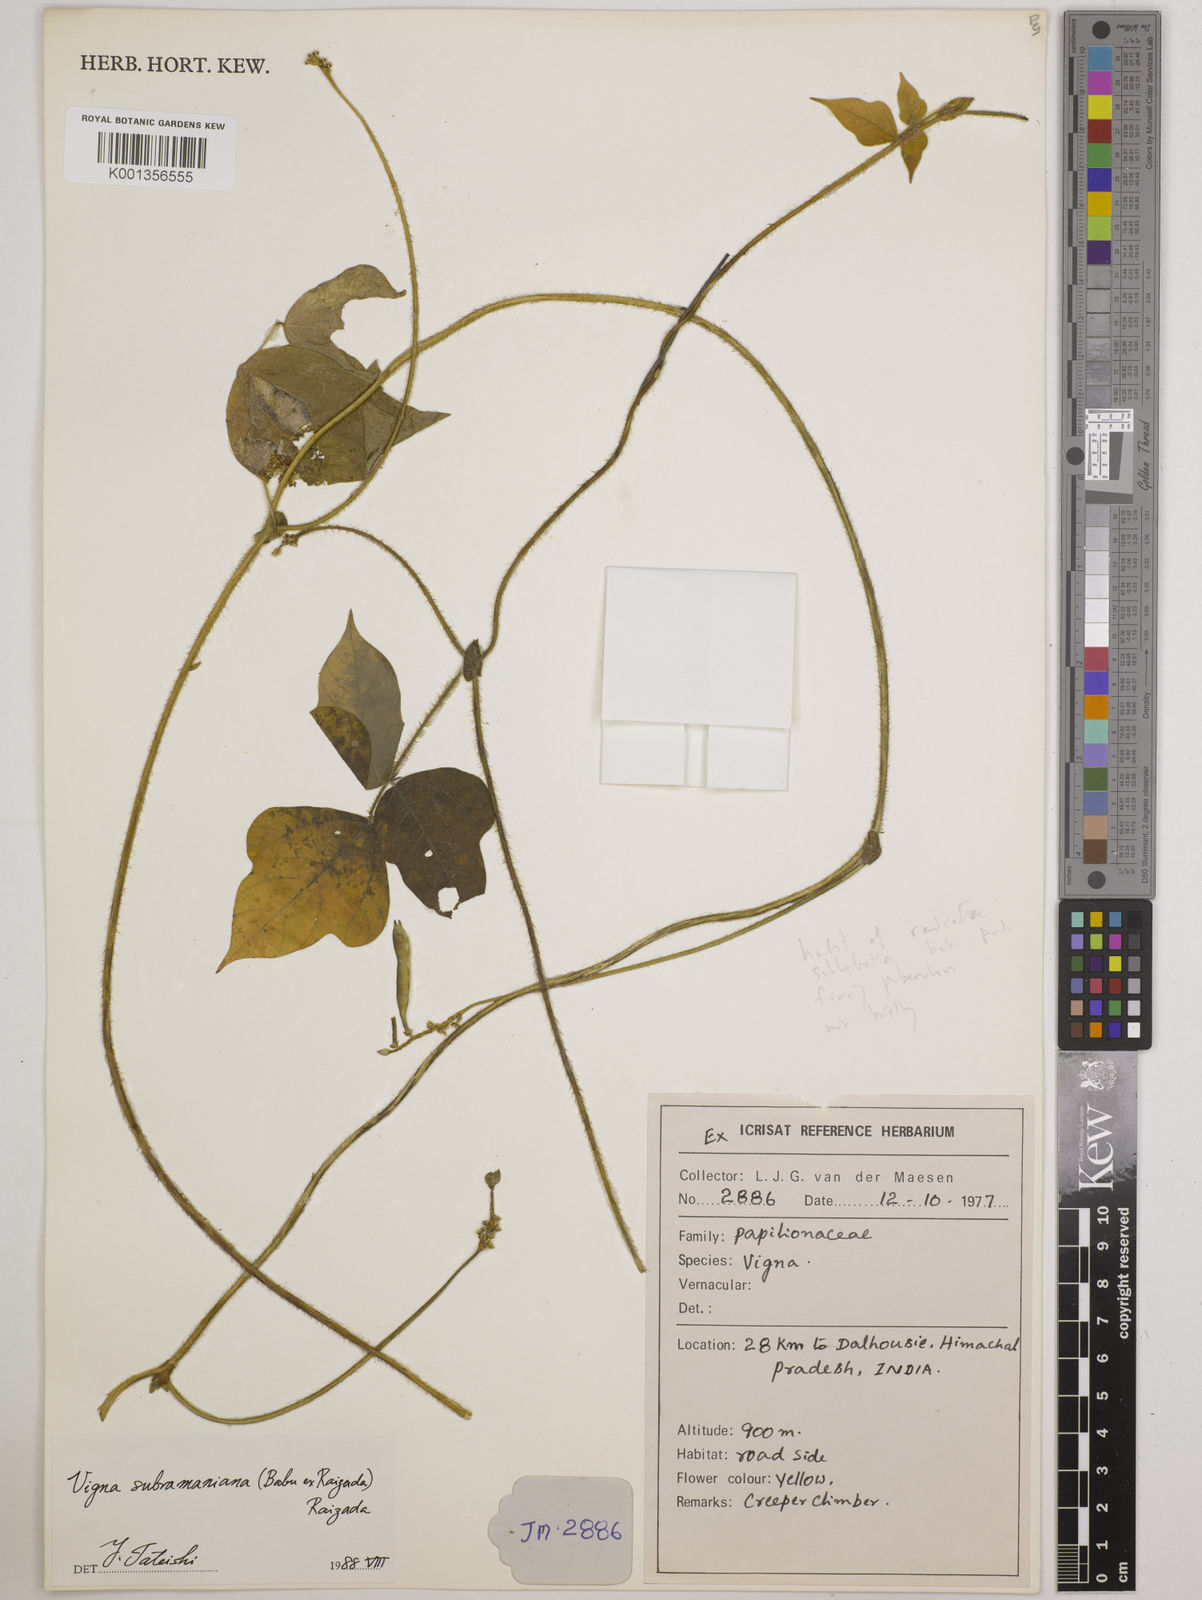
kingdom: Plantae
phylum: Tracheophyta
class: Magnoliopsida
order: Fabales
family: Fabaceae
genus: Vigna
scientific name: Vigna subramaniana
